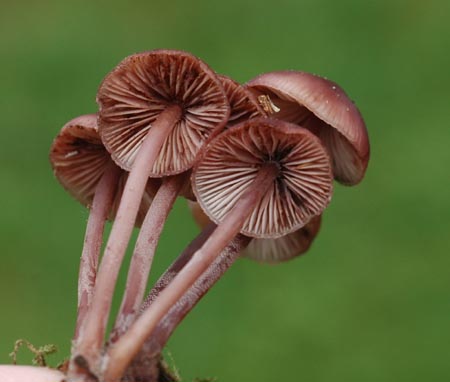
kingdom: Fungi
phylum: Basidiomycota
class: Agaricomycetes
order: Agaricales
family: Mycenaceae
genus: Mycena
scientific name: Mycena haematopus
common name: blødende huesvamp
